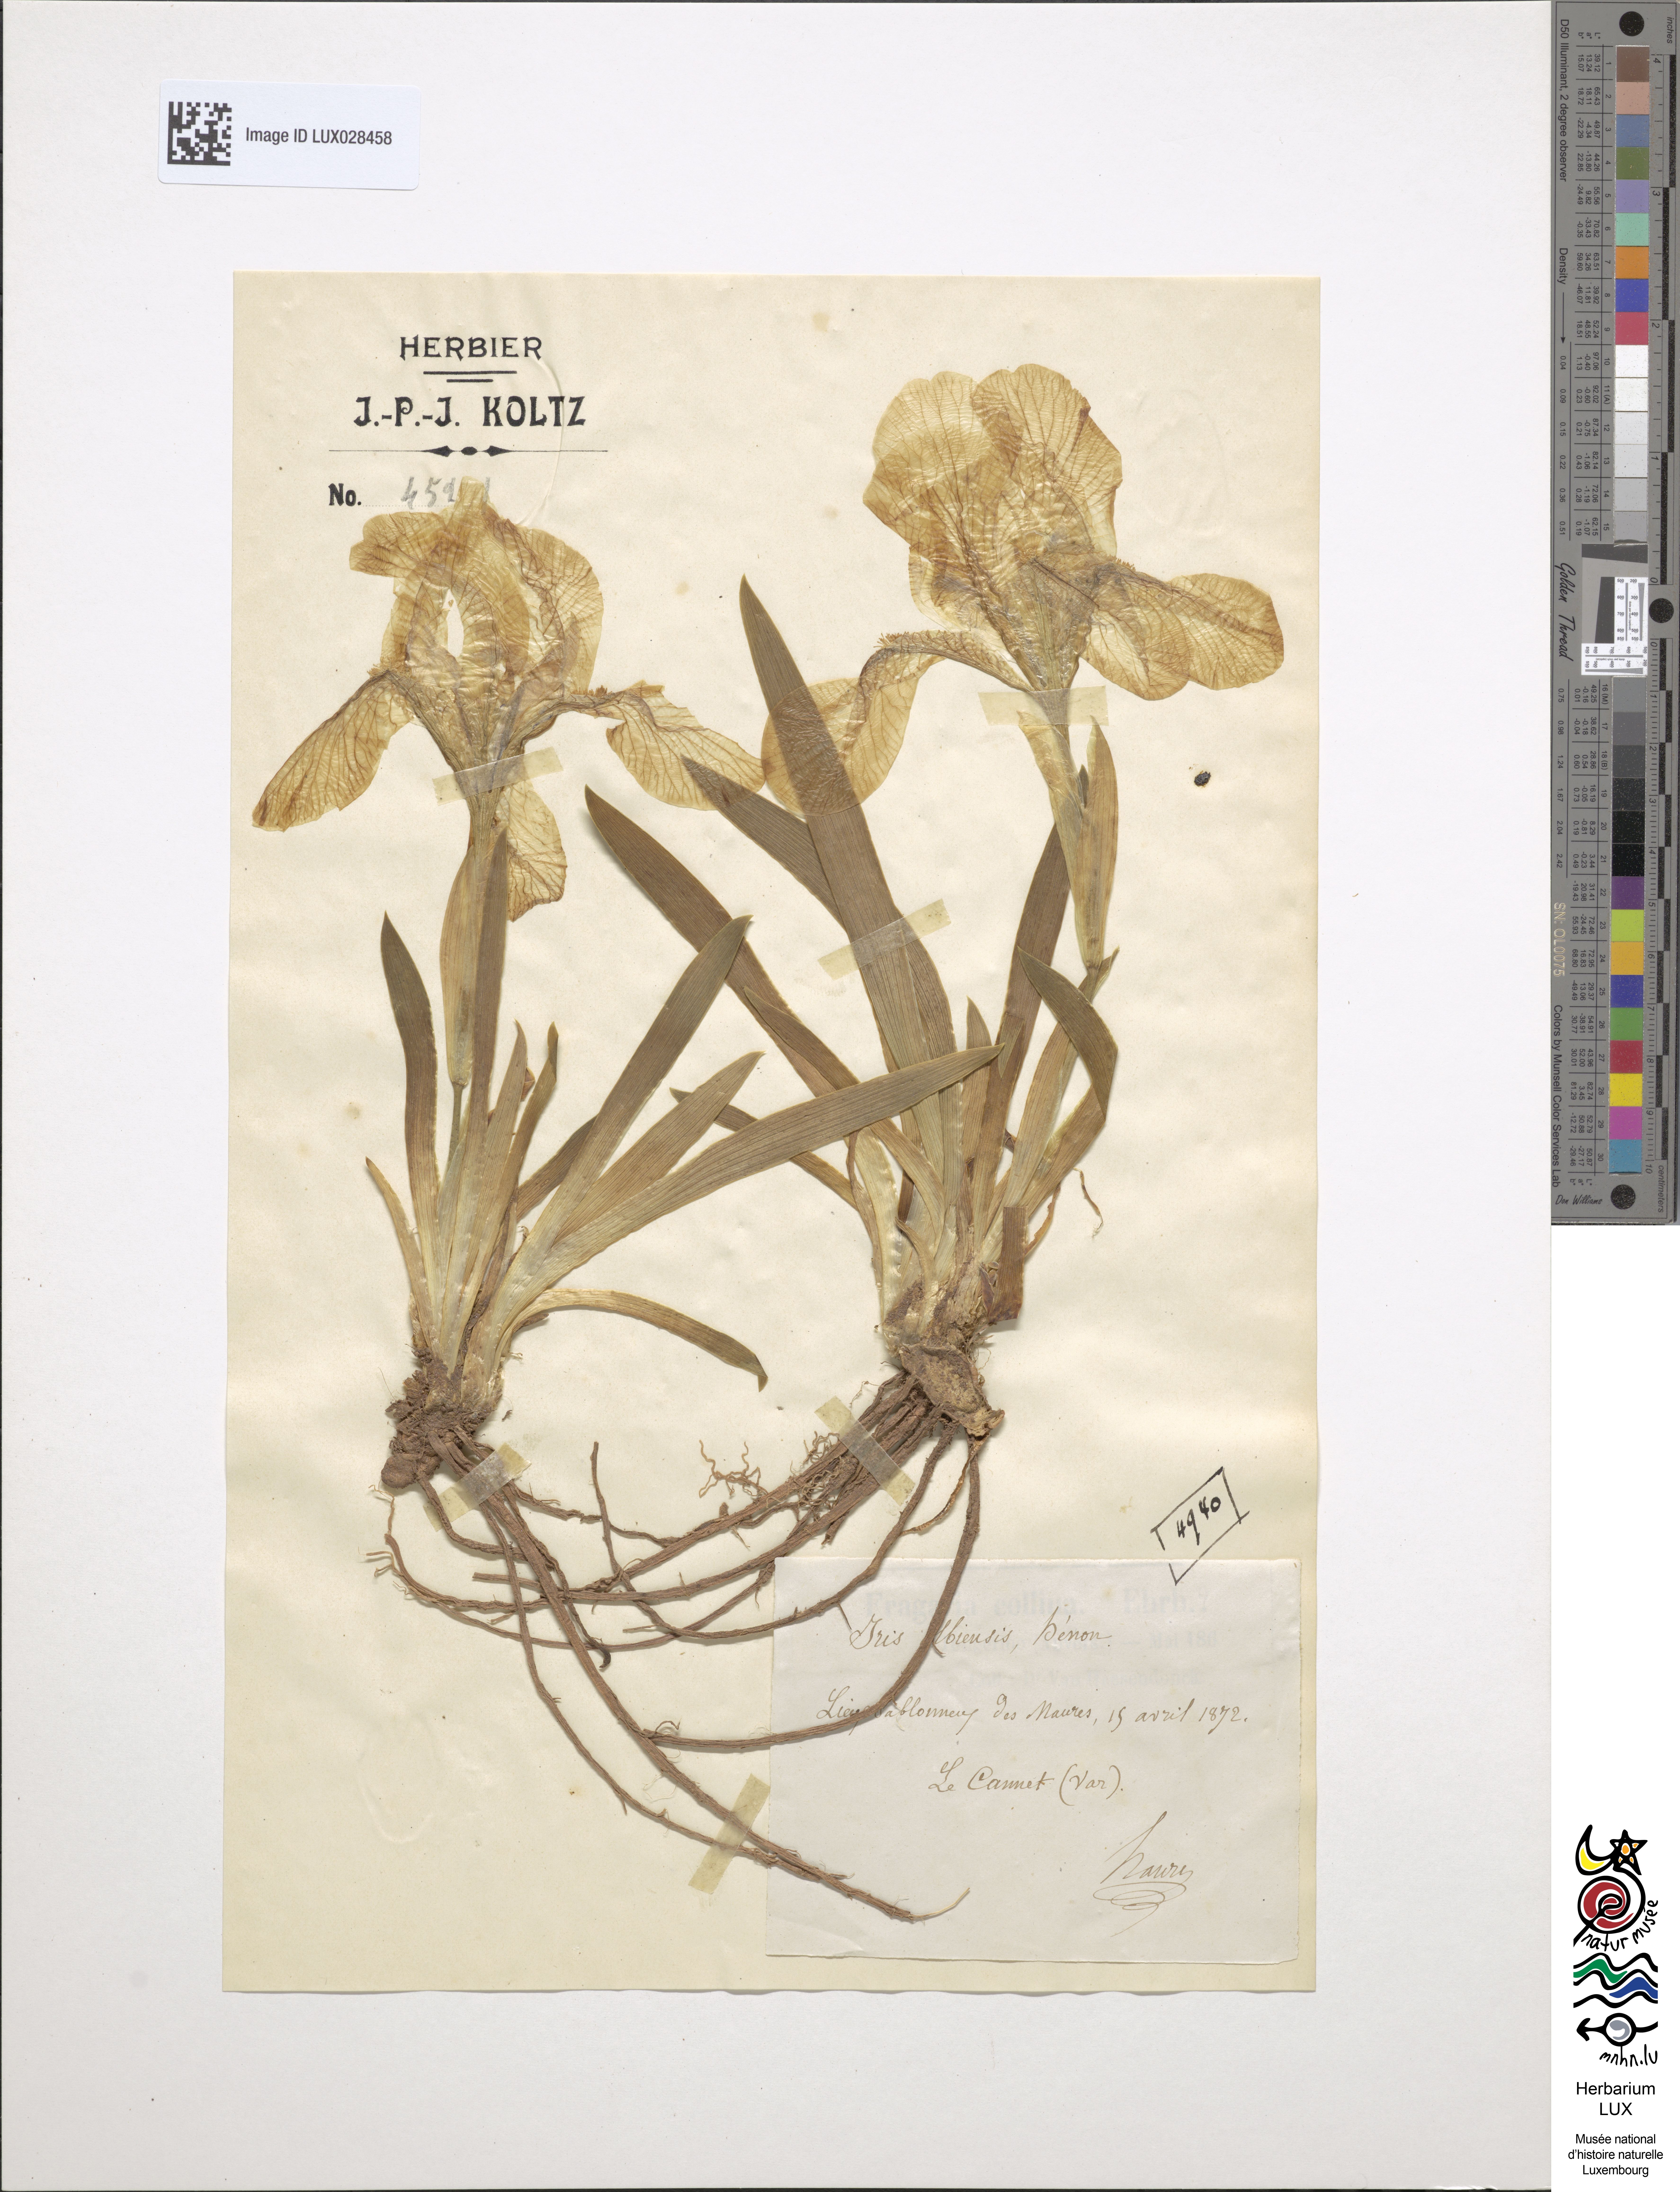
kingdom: Animalia
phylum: Arthropoda
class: Insecta
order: Mantodea
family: Eremiaphilidae
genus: Iris
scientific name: Iris
